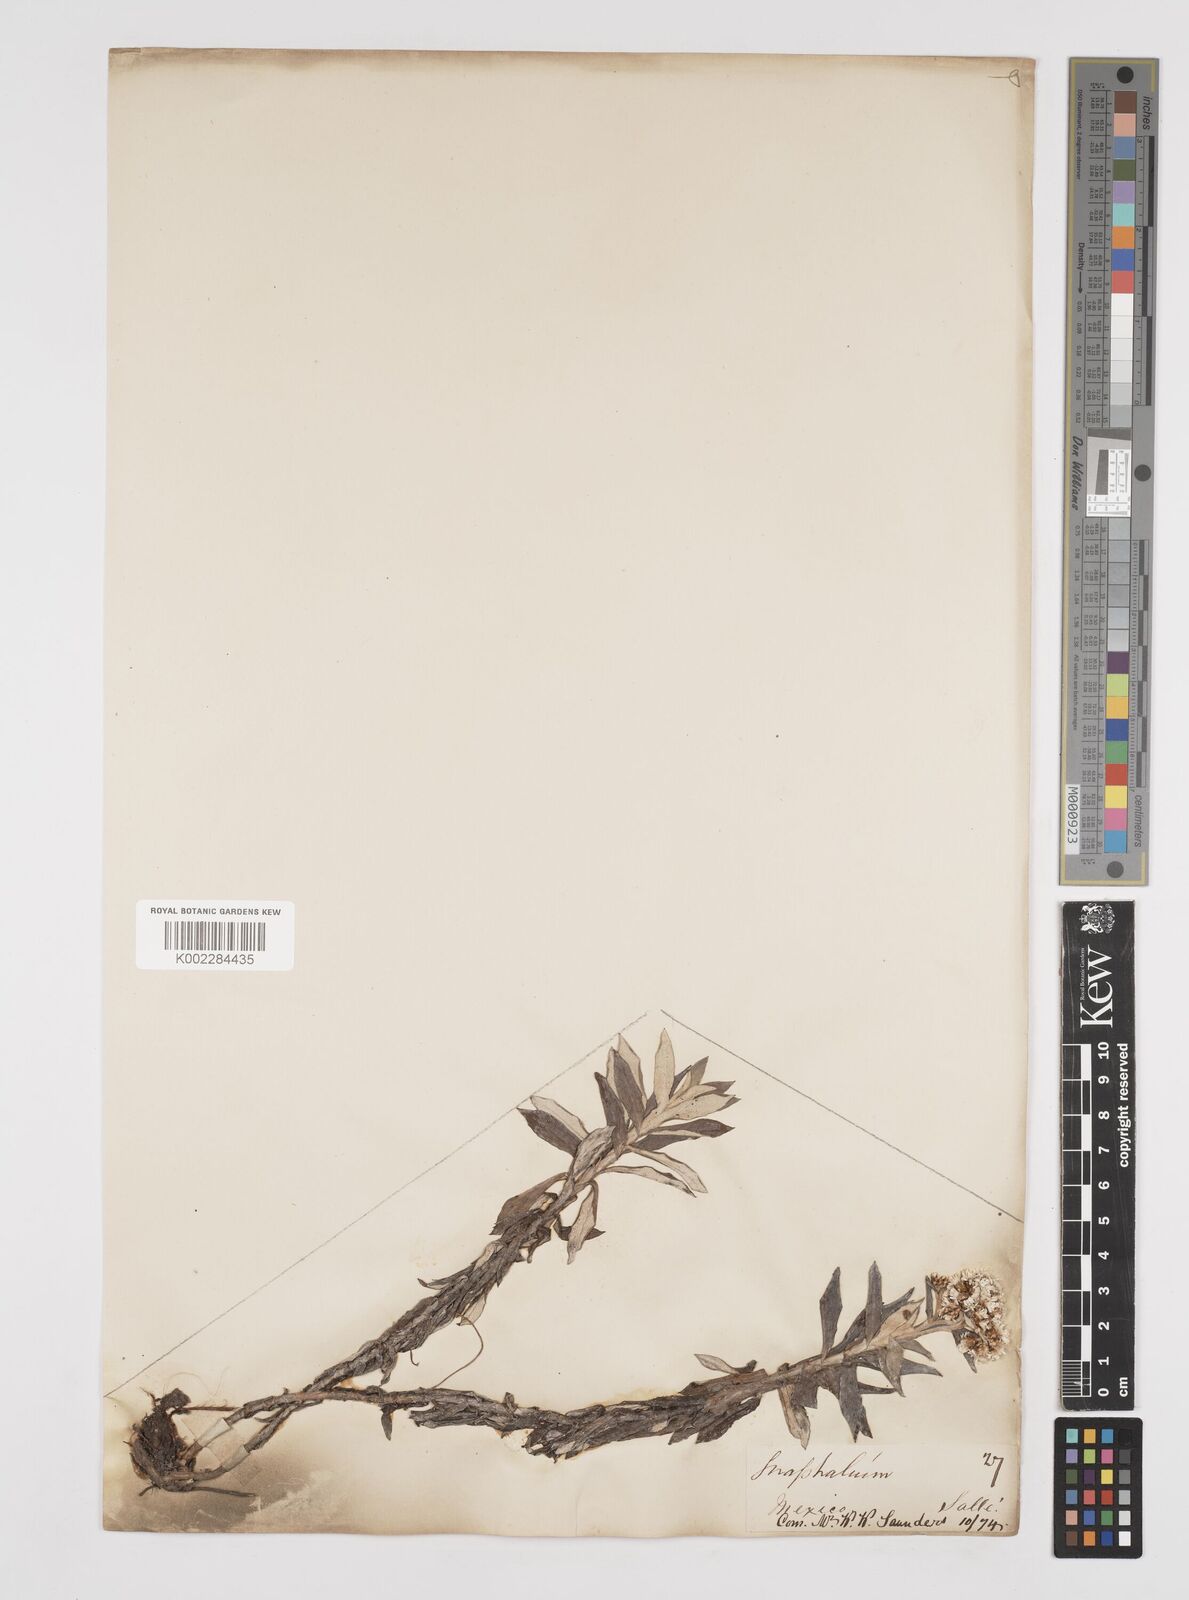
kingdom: Plantae
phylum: Tracheophyta
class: Magnoliopsida
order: Asterales
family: Asteraceae
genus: Gnaphaliothamnus
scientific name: Gnaphaliothamnus concinnus
